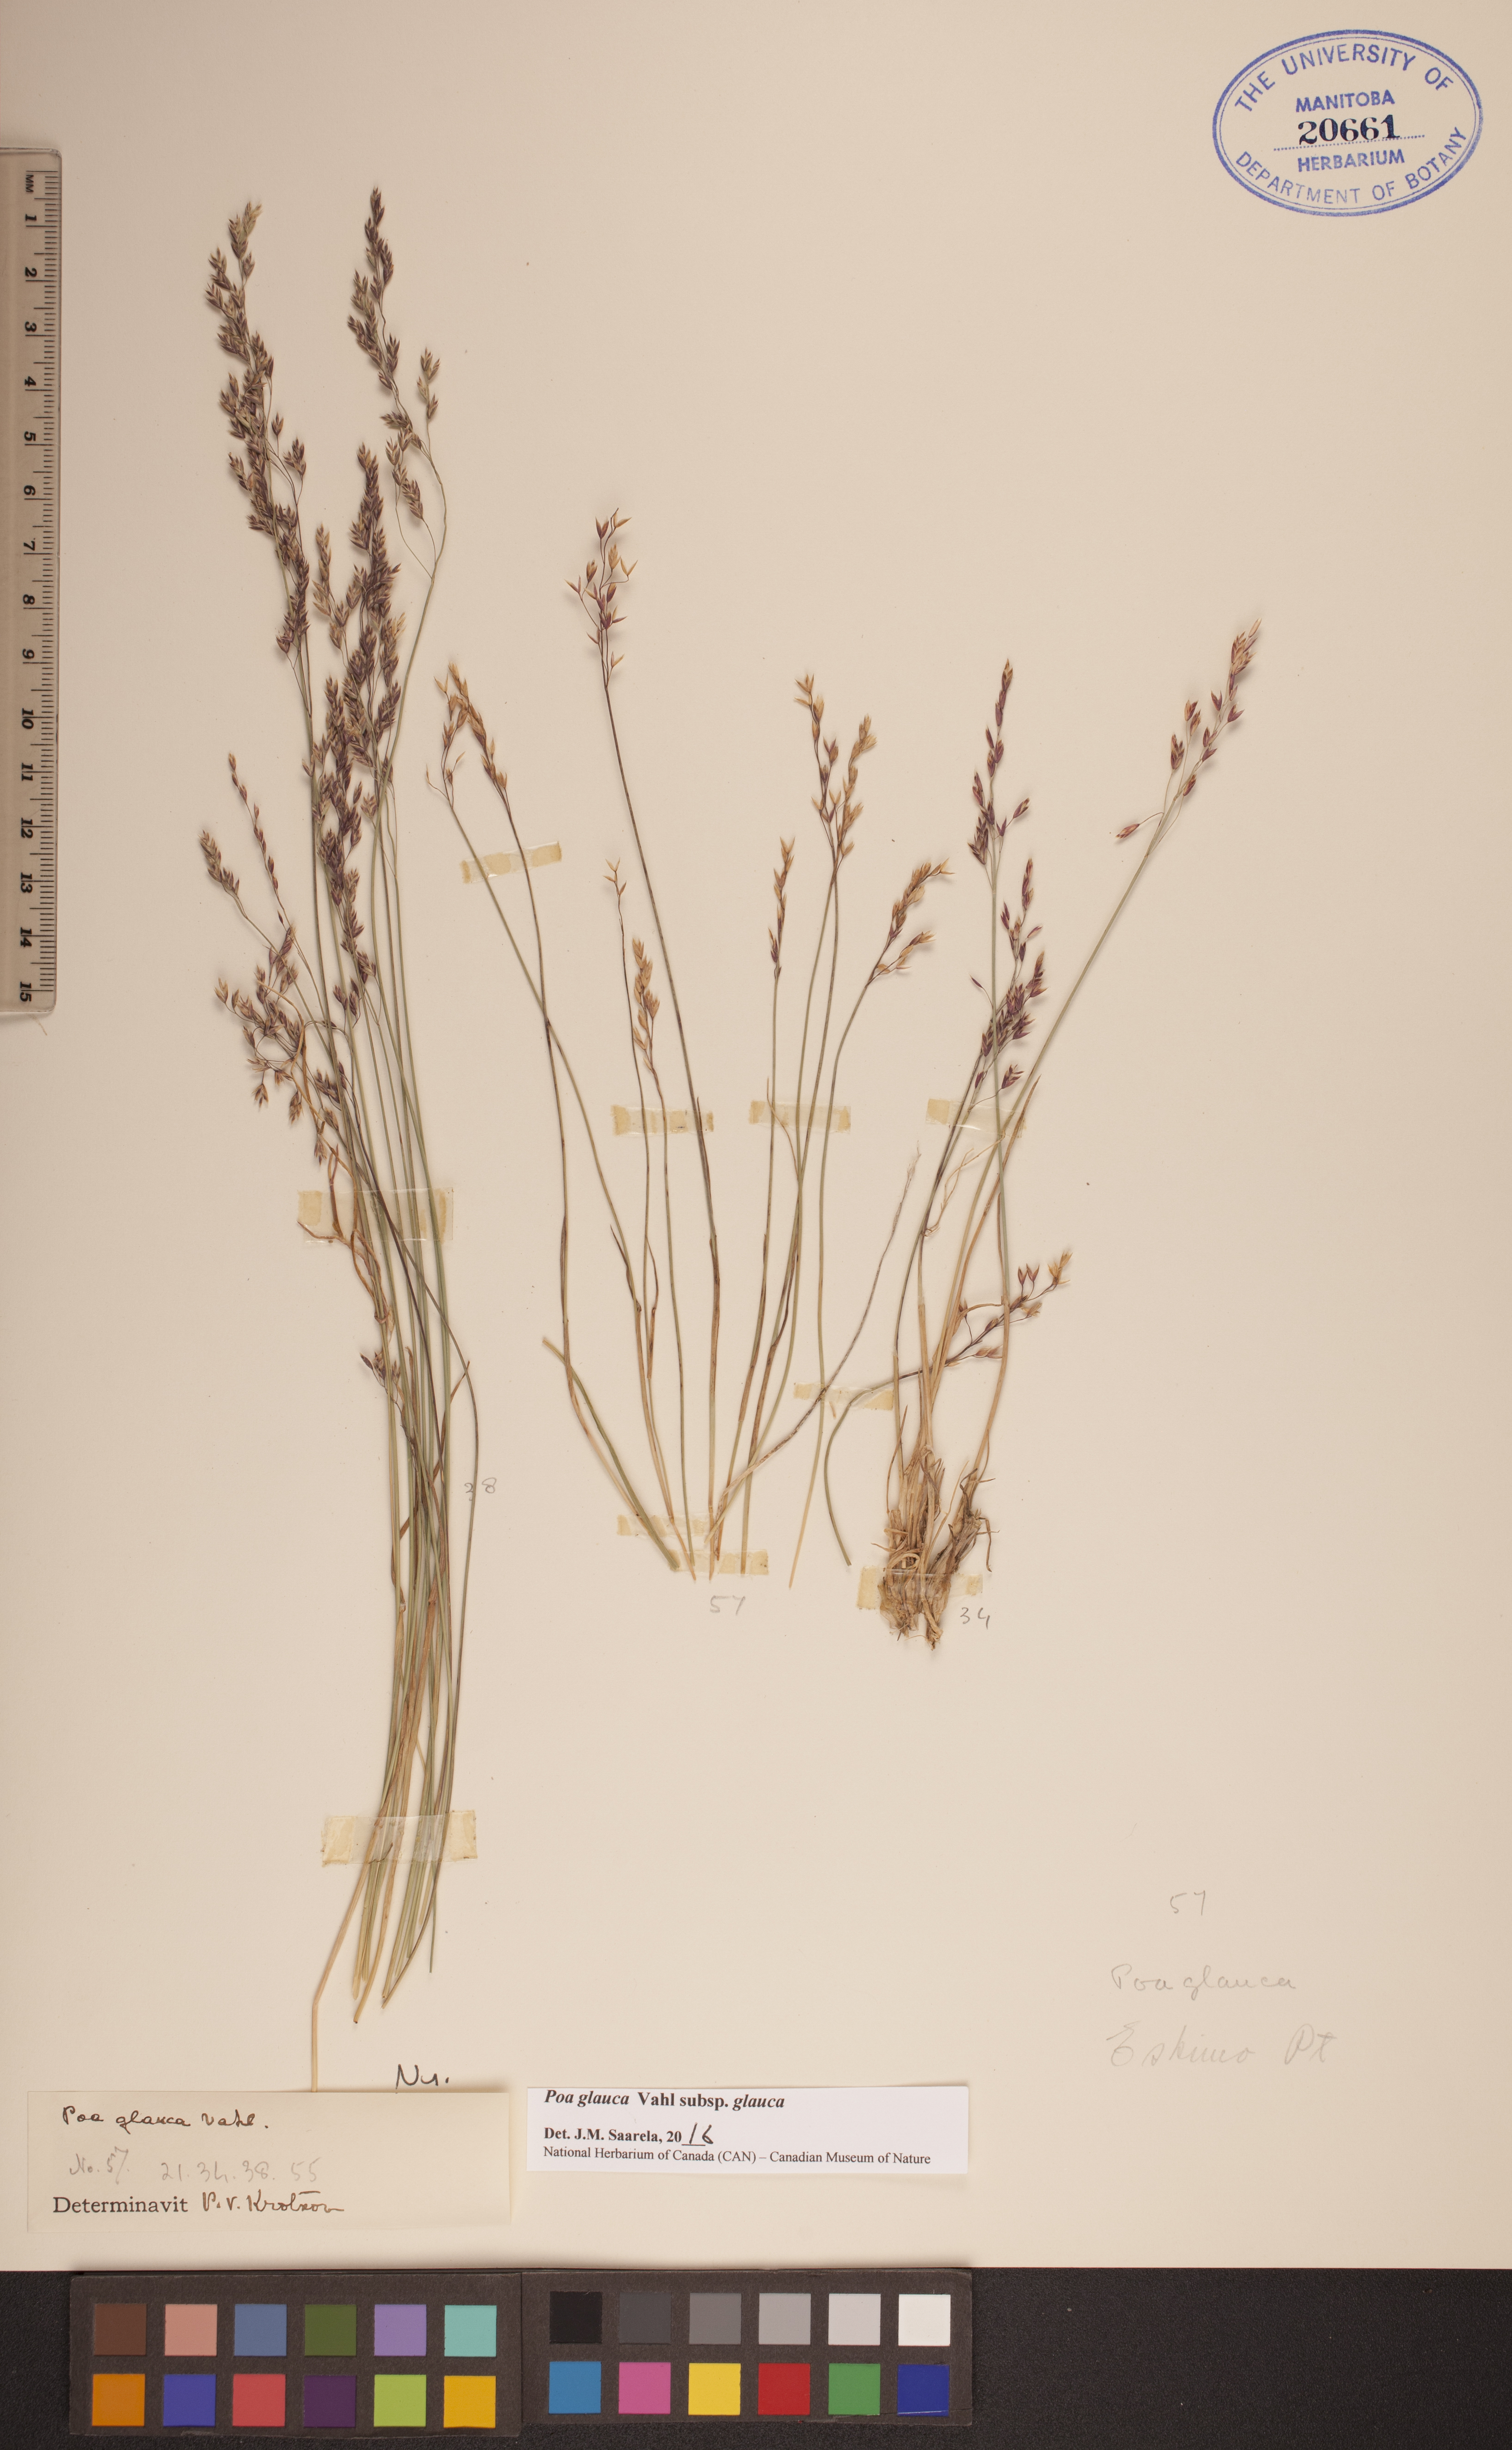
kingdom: Plantae
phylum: Tracheophyta
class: Liliopsida
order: Poales
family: Poaceae
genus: Poa
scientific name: Poa glauca
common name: Glaucous bluegrass
